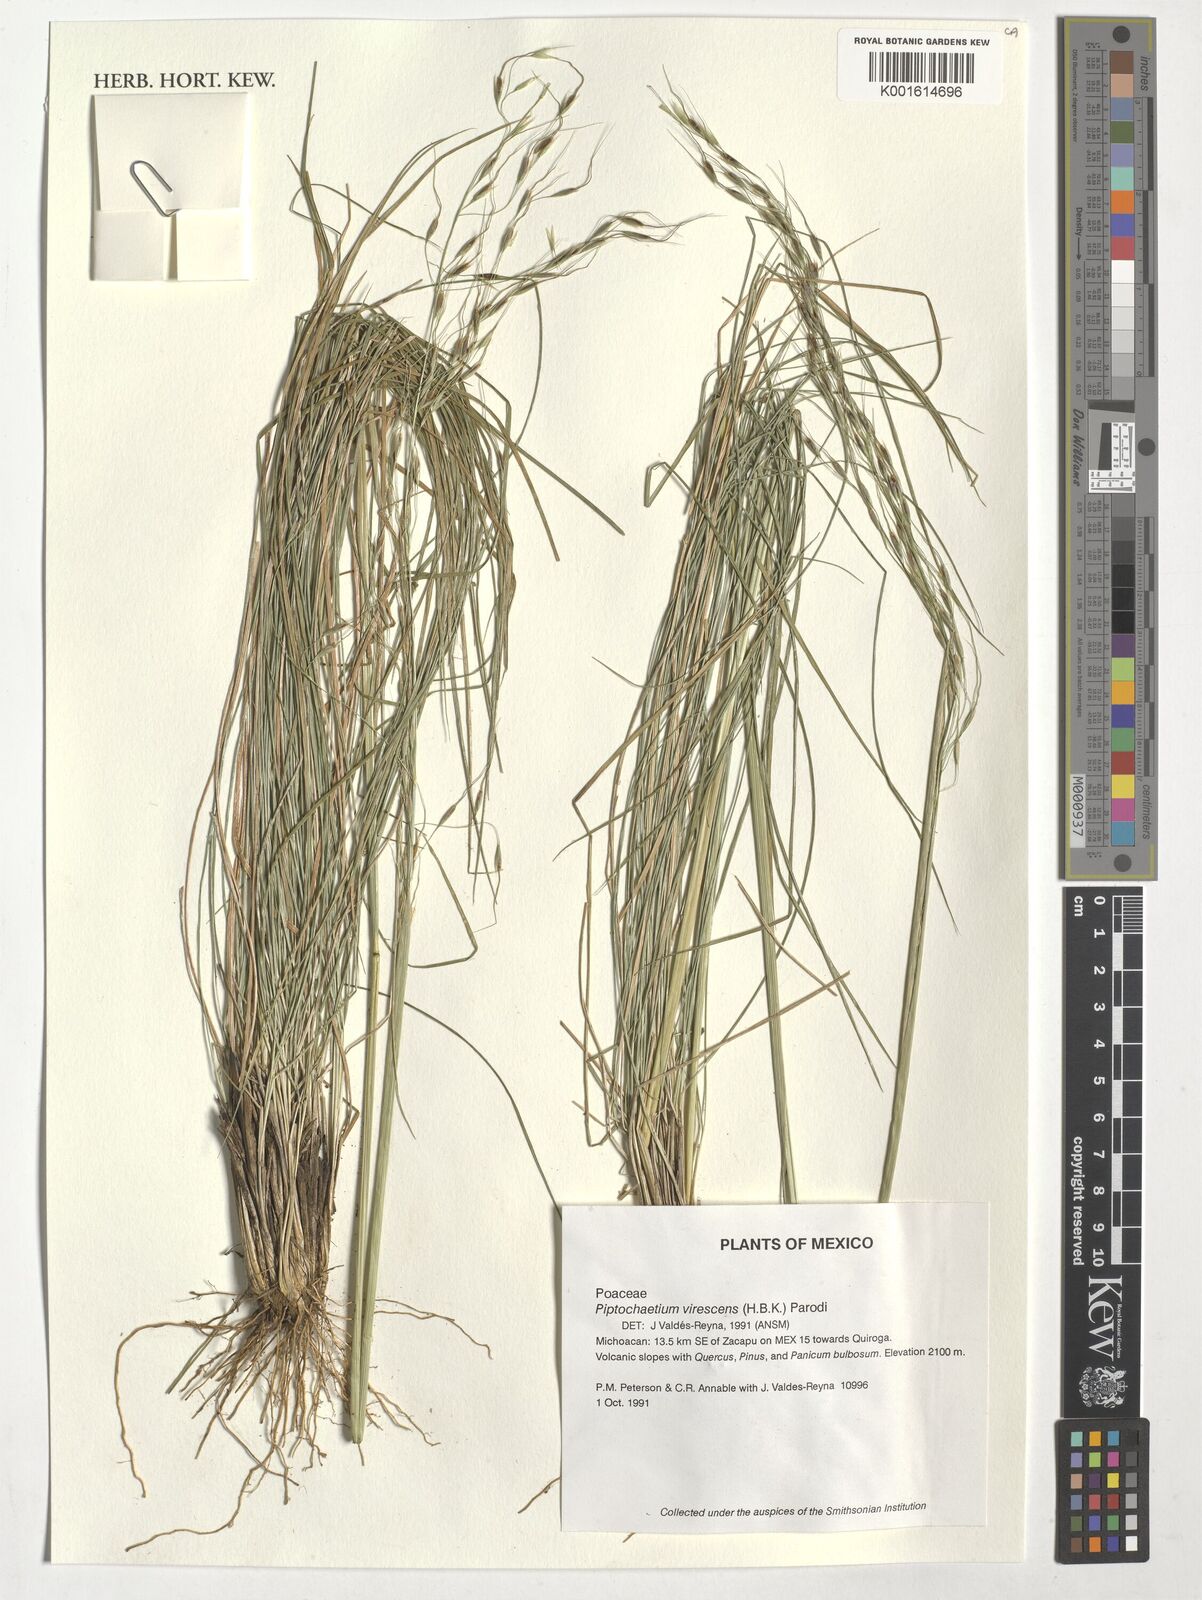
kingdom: Plantae
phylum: Tracheophyta
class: Liliopsida
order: Poales
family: Poaceae
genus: Piptochaetium
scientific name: Piptochaetium virescens
